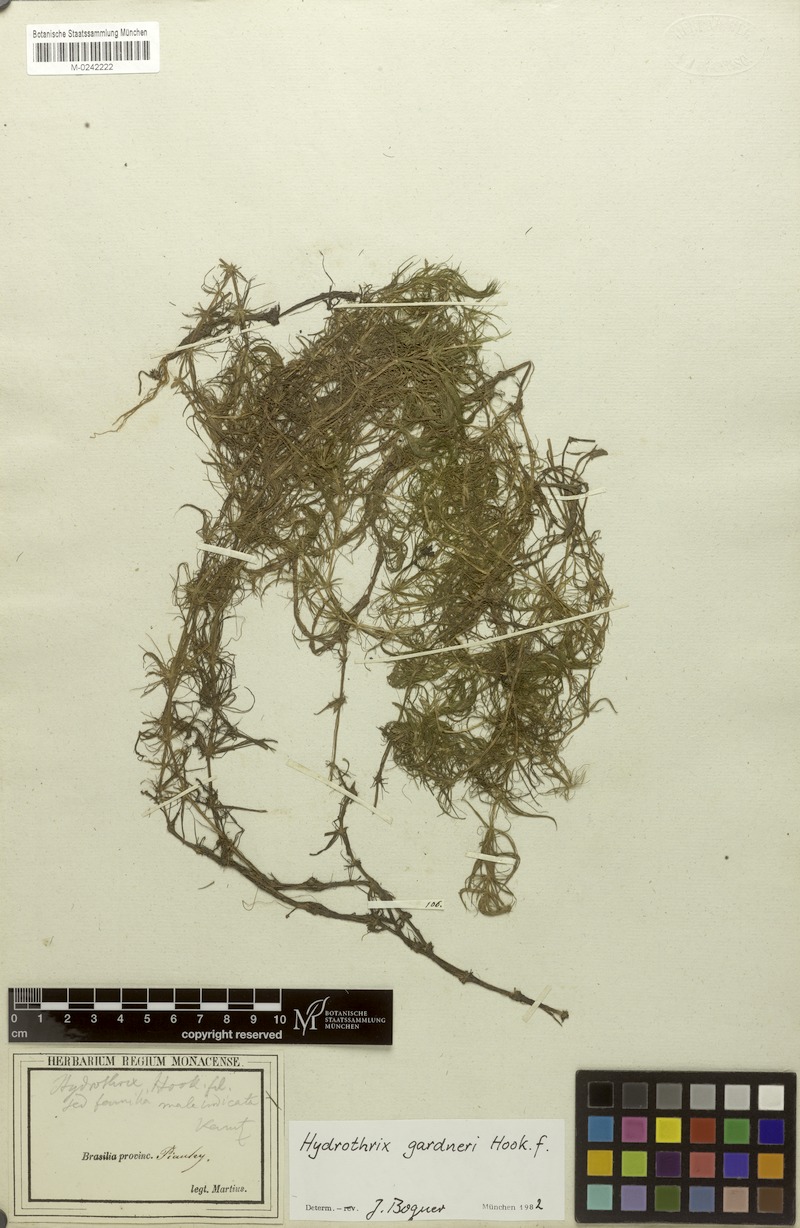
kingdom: Plantae
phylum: Tracheophyta
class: Liliopsida
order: Commelinales
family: Pontederiaceae
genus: Heteranthera
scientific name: Heteranthera gardneri
